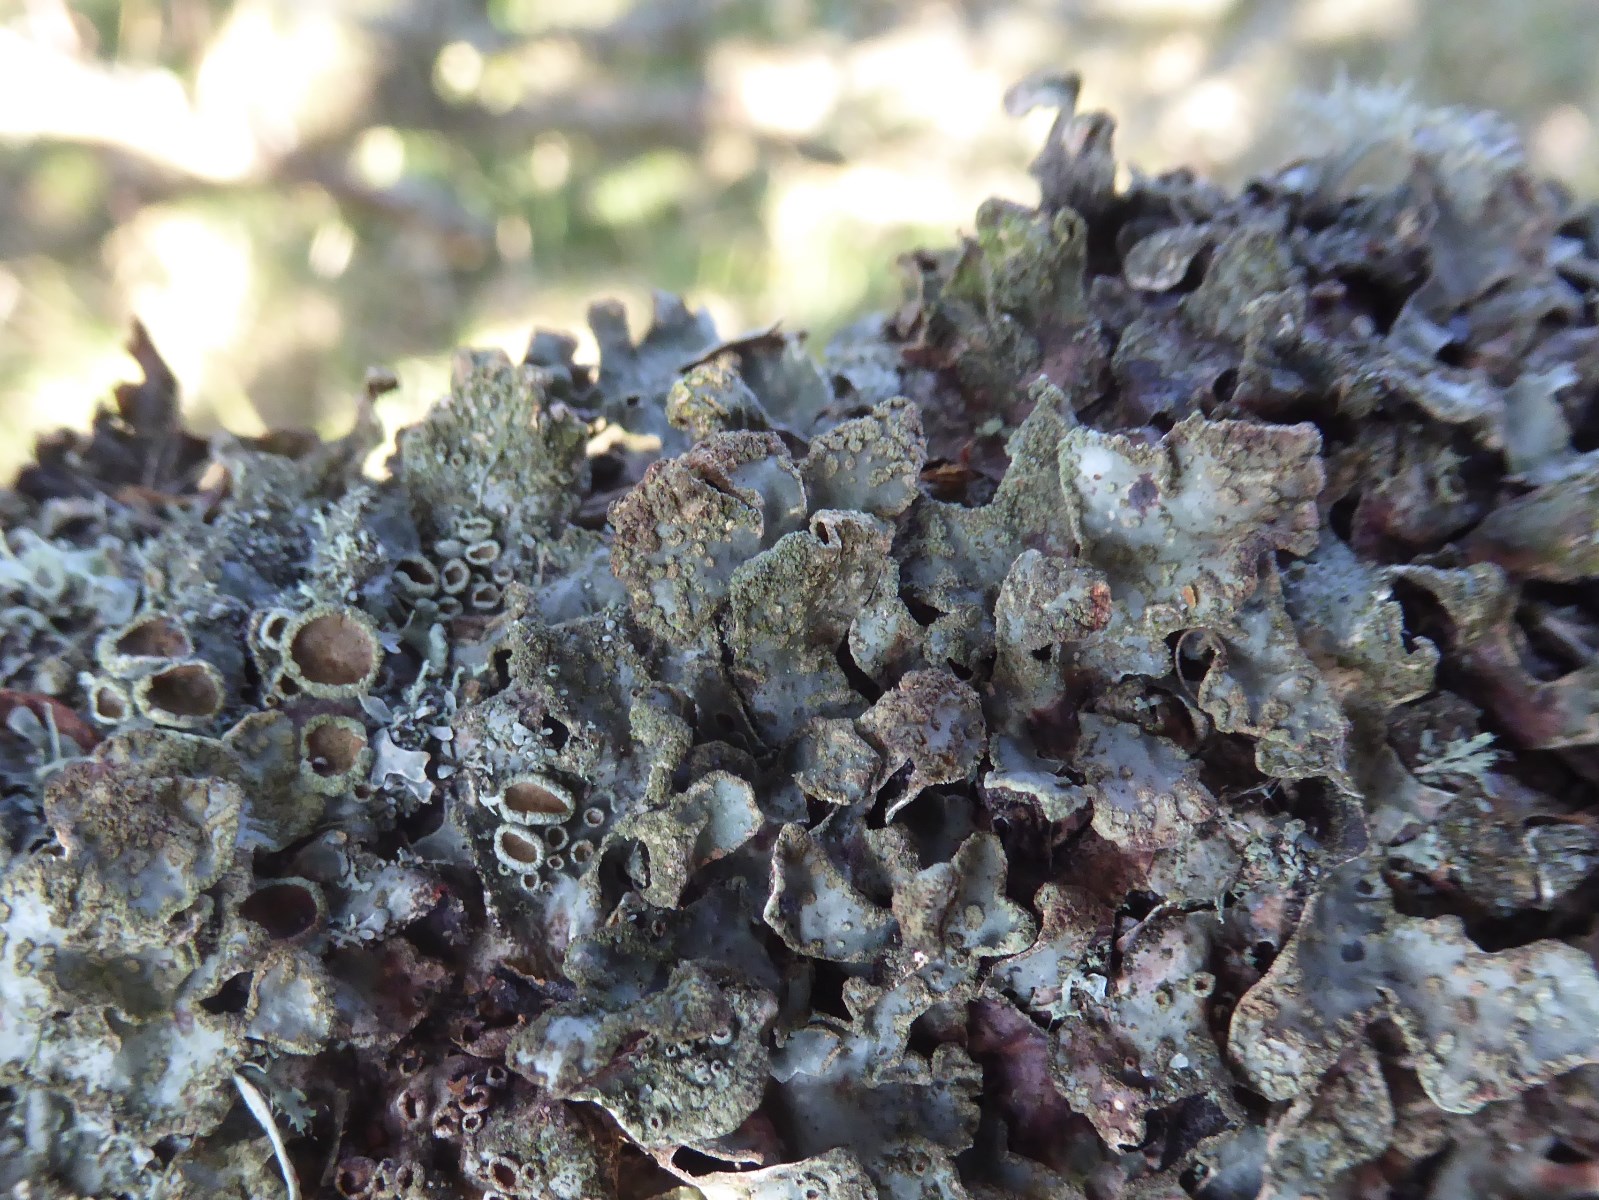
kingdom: Fungi
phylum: Ascomycota
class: Lecanoromycetes
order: Lecanorales
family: Parmeliaceae
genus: Parmelia
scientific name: Parmelia sulcata
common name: rynket skållav
